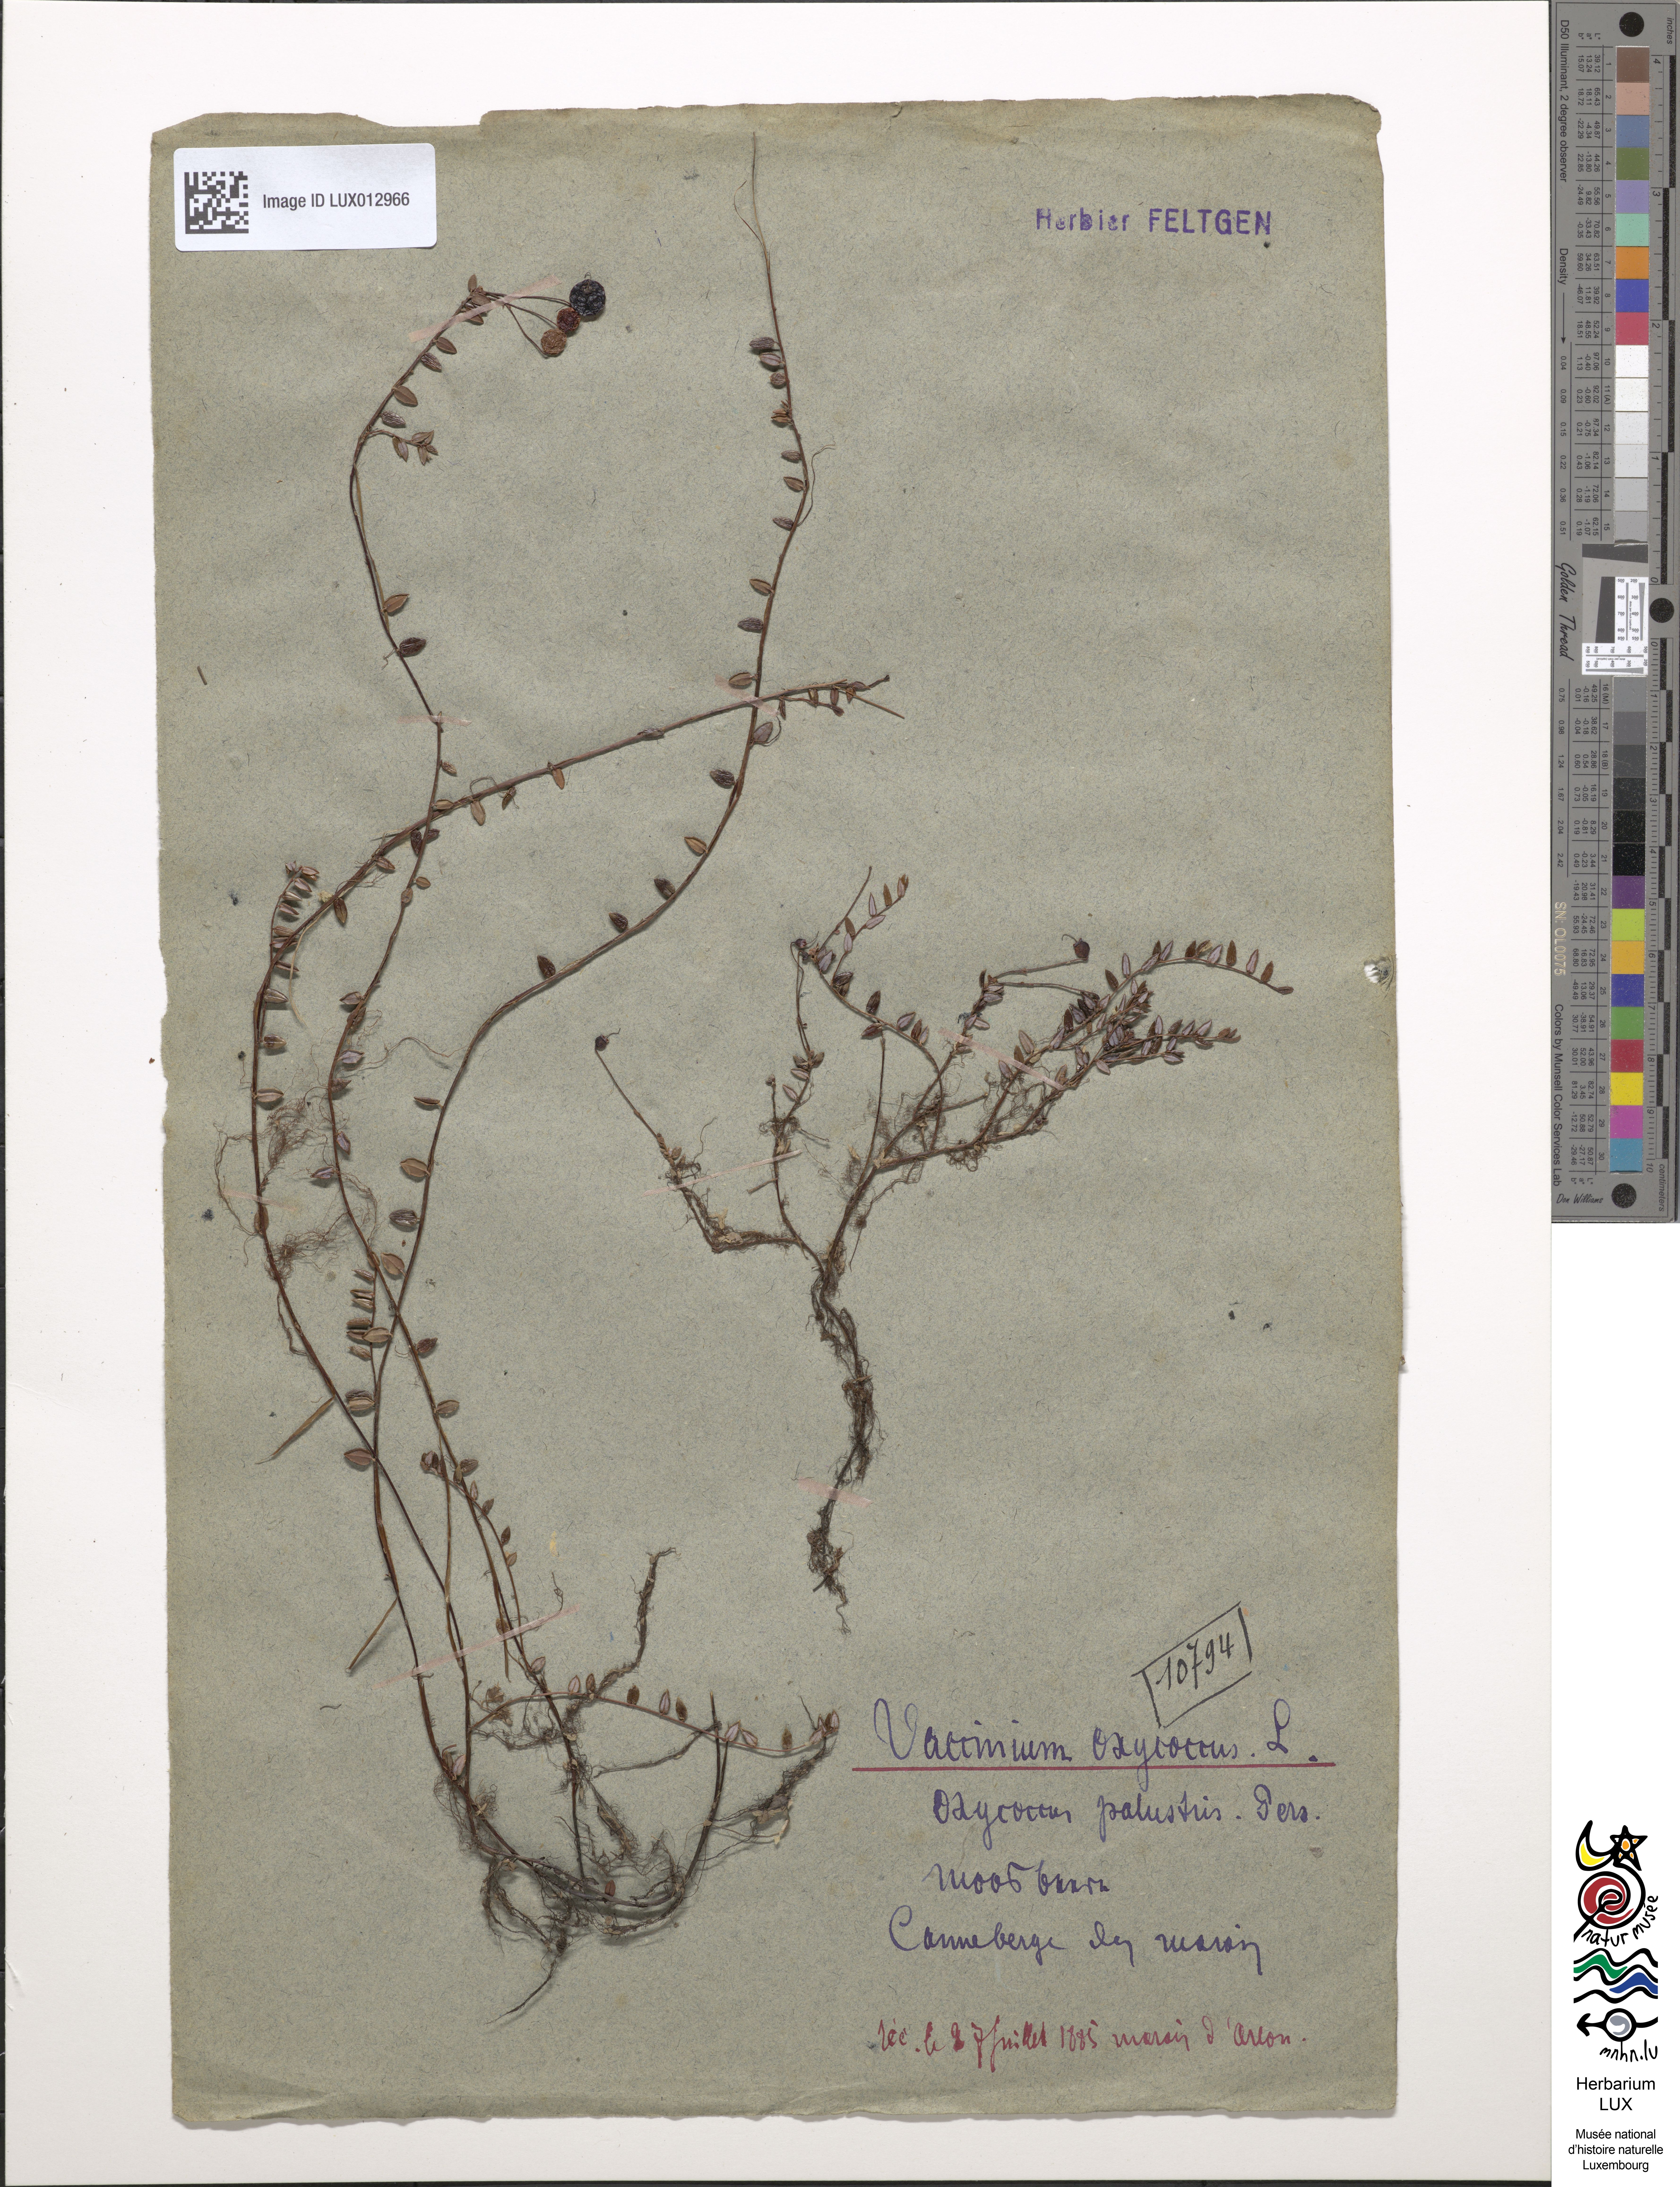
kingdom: Plantae
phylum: Tracheophyta
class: Magnoliopsida
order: Ericales
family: Ericaceae
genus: Vaccinium
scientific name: Vaccinium oxycoccos
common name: Cranberry
